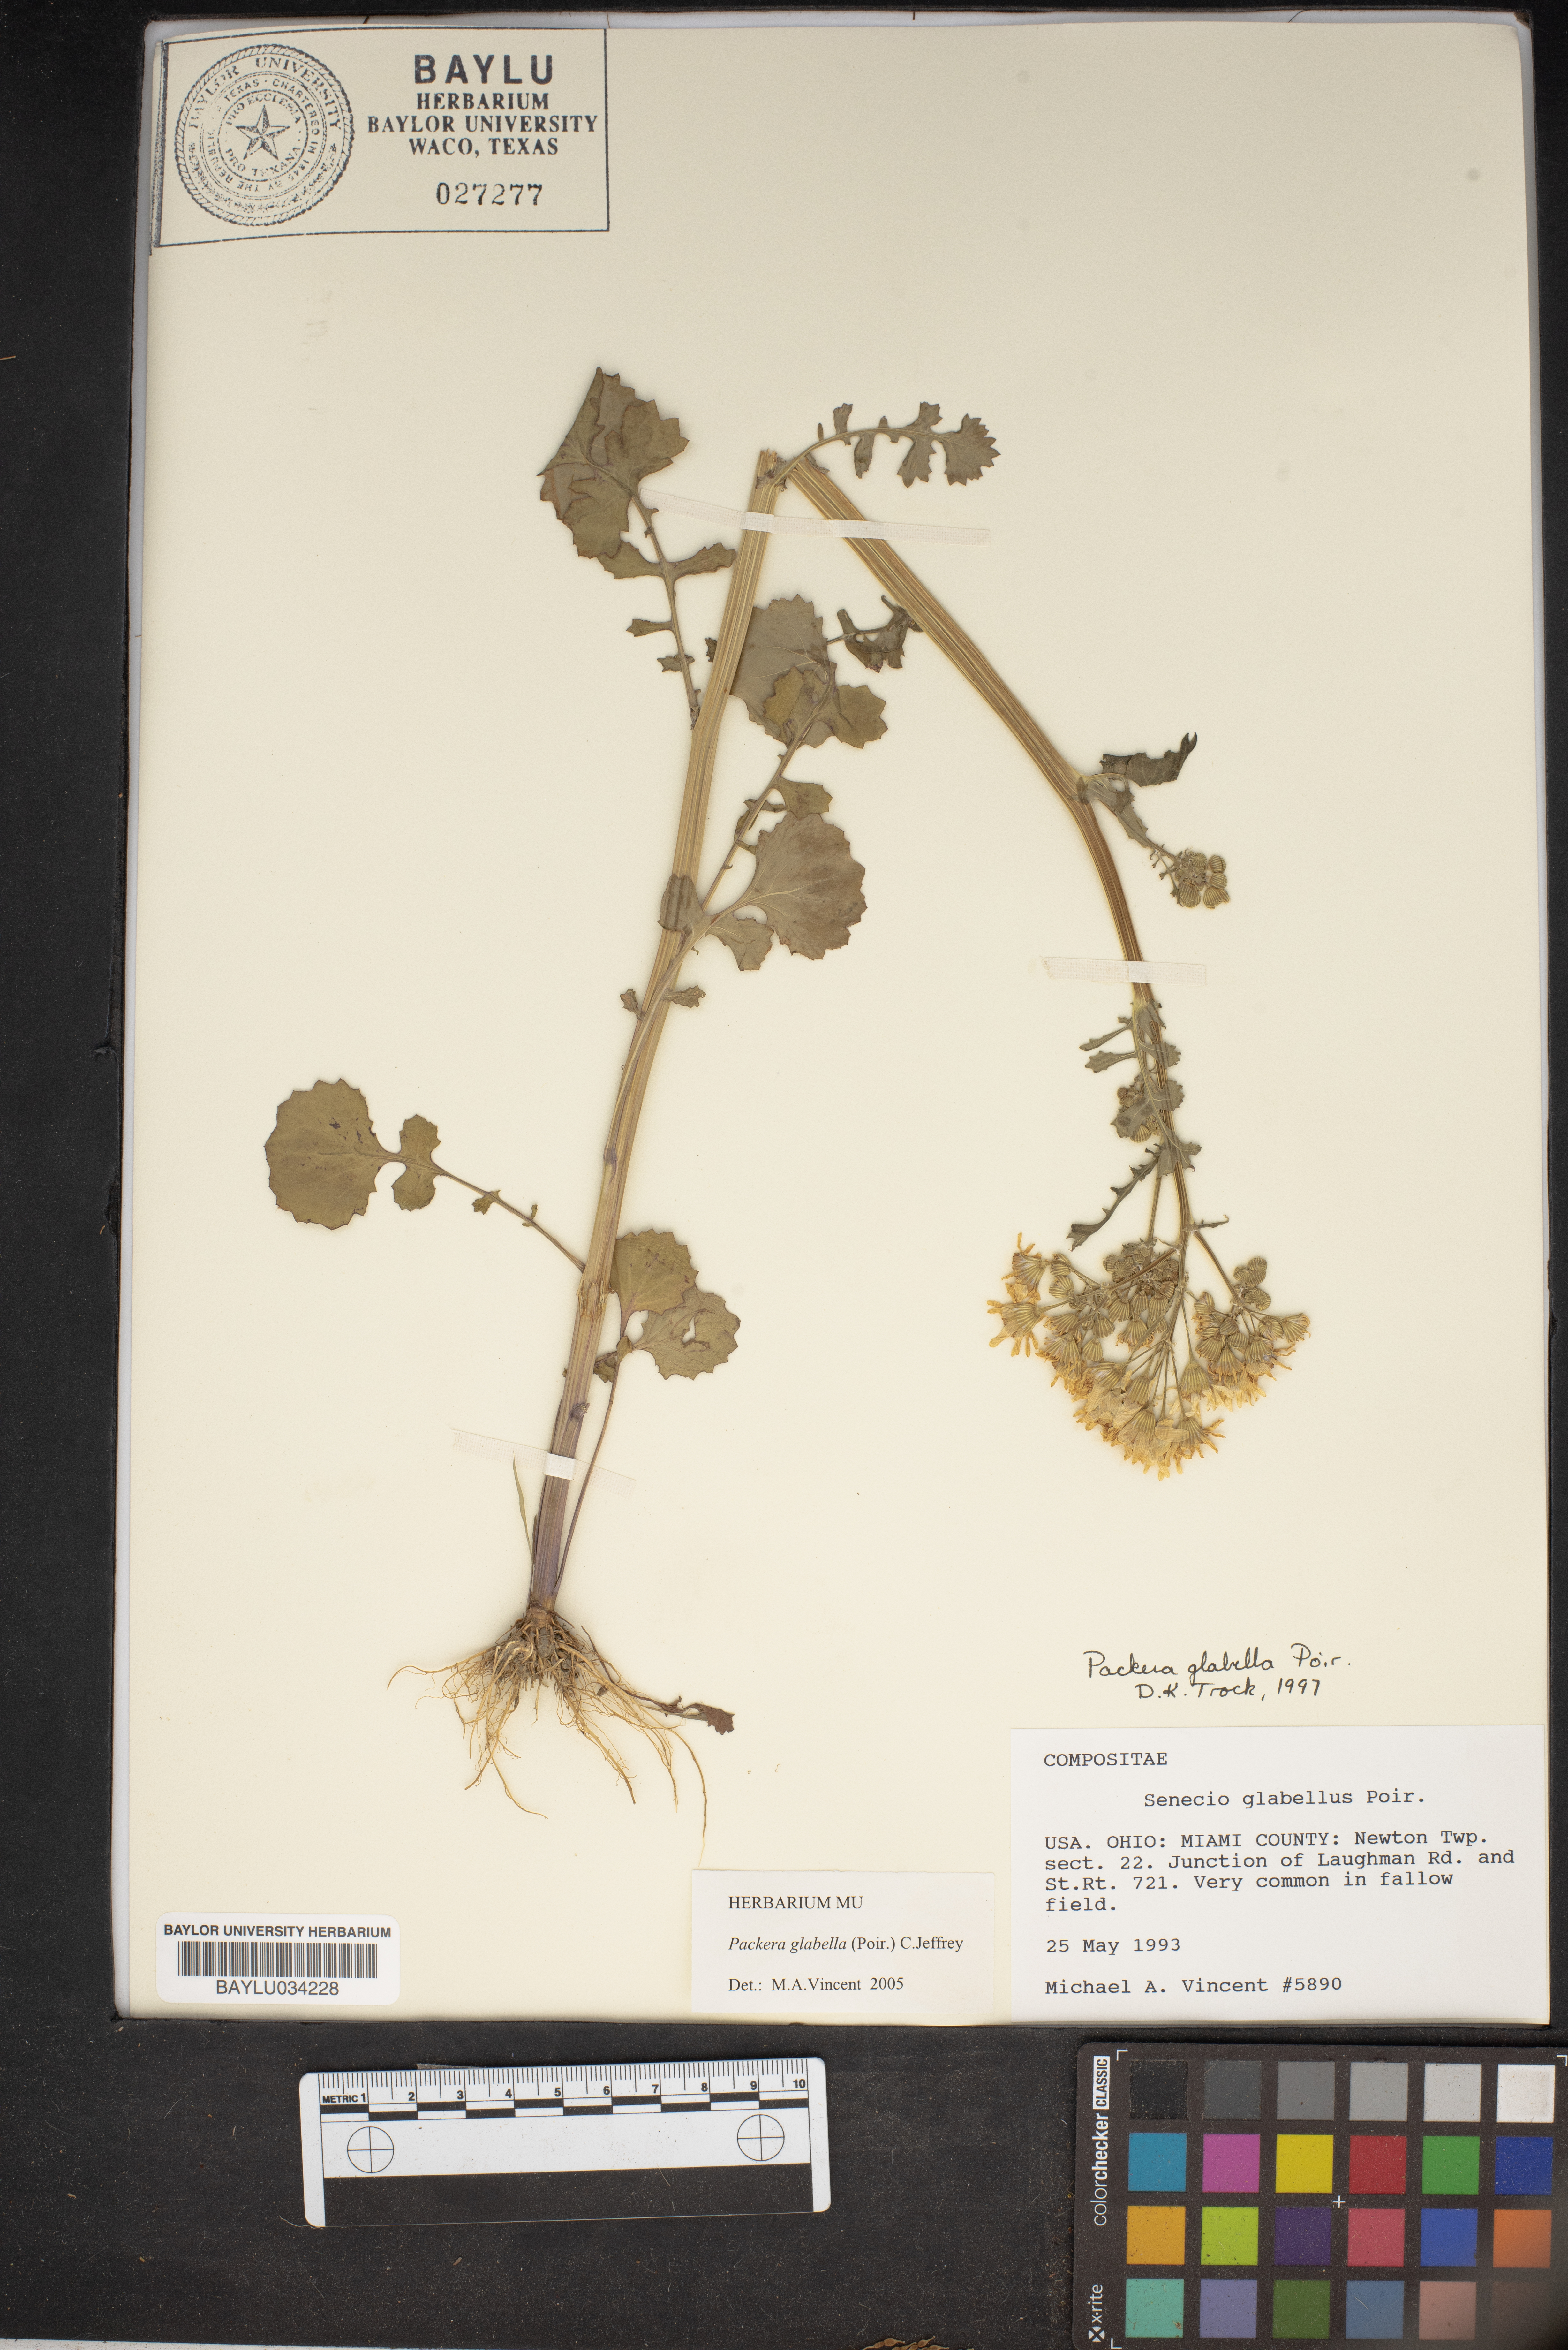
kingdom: Plantae
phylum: Tracheophyta
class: Magnoliopsida
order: Asterales
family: Asteraceae
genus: Tephroseris
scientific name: Tephroseris praticola
